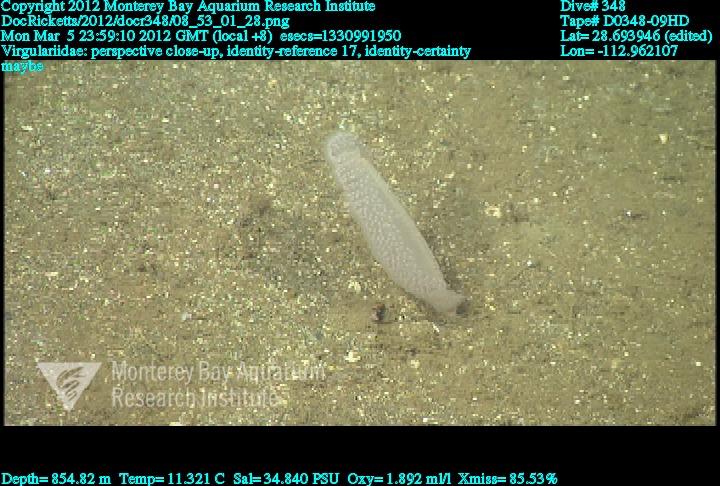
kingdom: Animalia
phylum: Cnidaria
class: Anthozoa
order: Scleralcyonacea
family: Virgulariidae
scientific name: Virgulariidae
